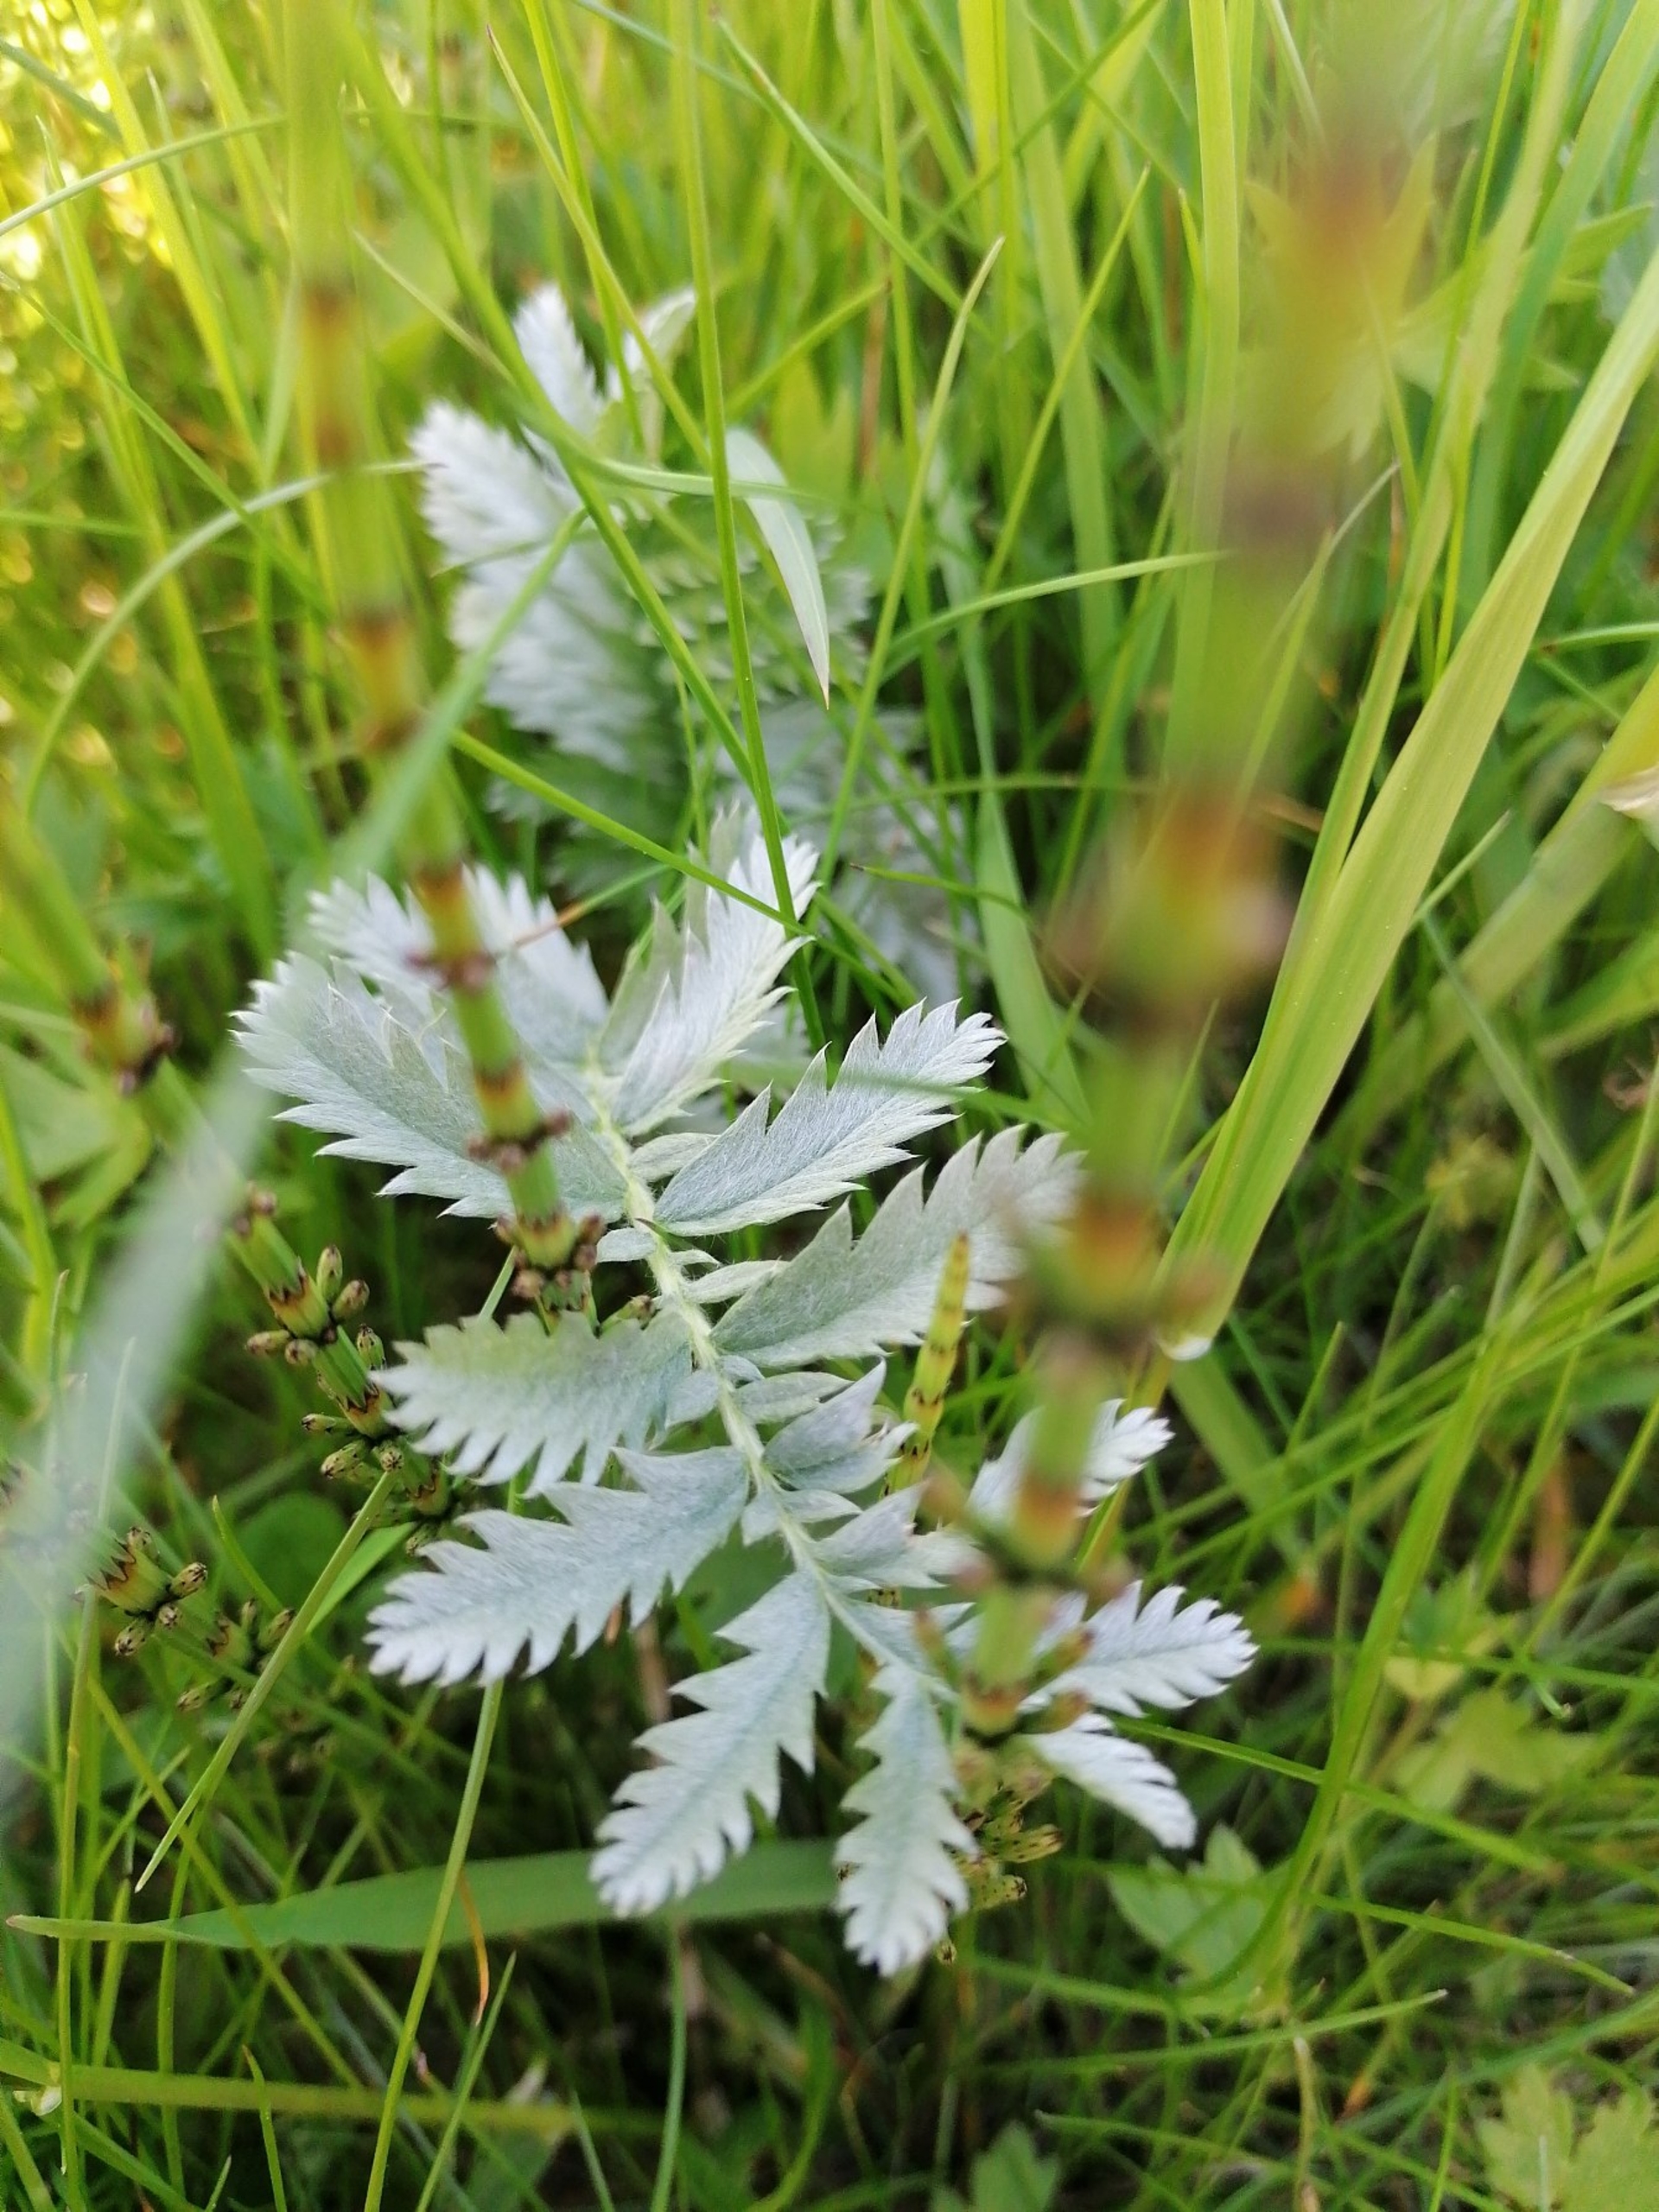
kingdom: Plantae
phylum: Tracheophyta
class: Magnoliopsida
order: Rosales
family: Rosaceae
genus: Argentina
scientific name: Argentina anserina
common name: Gåsepotentil
